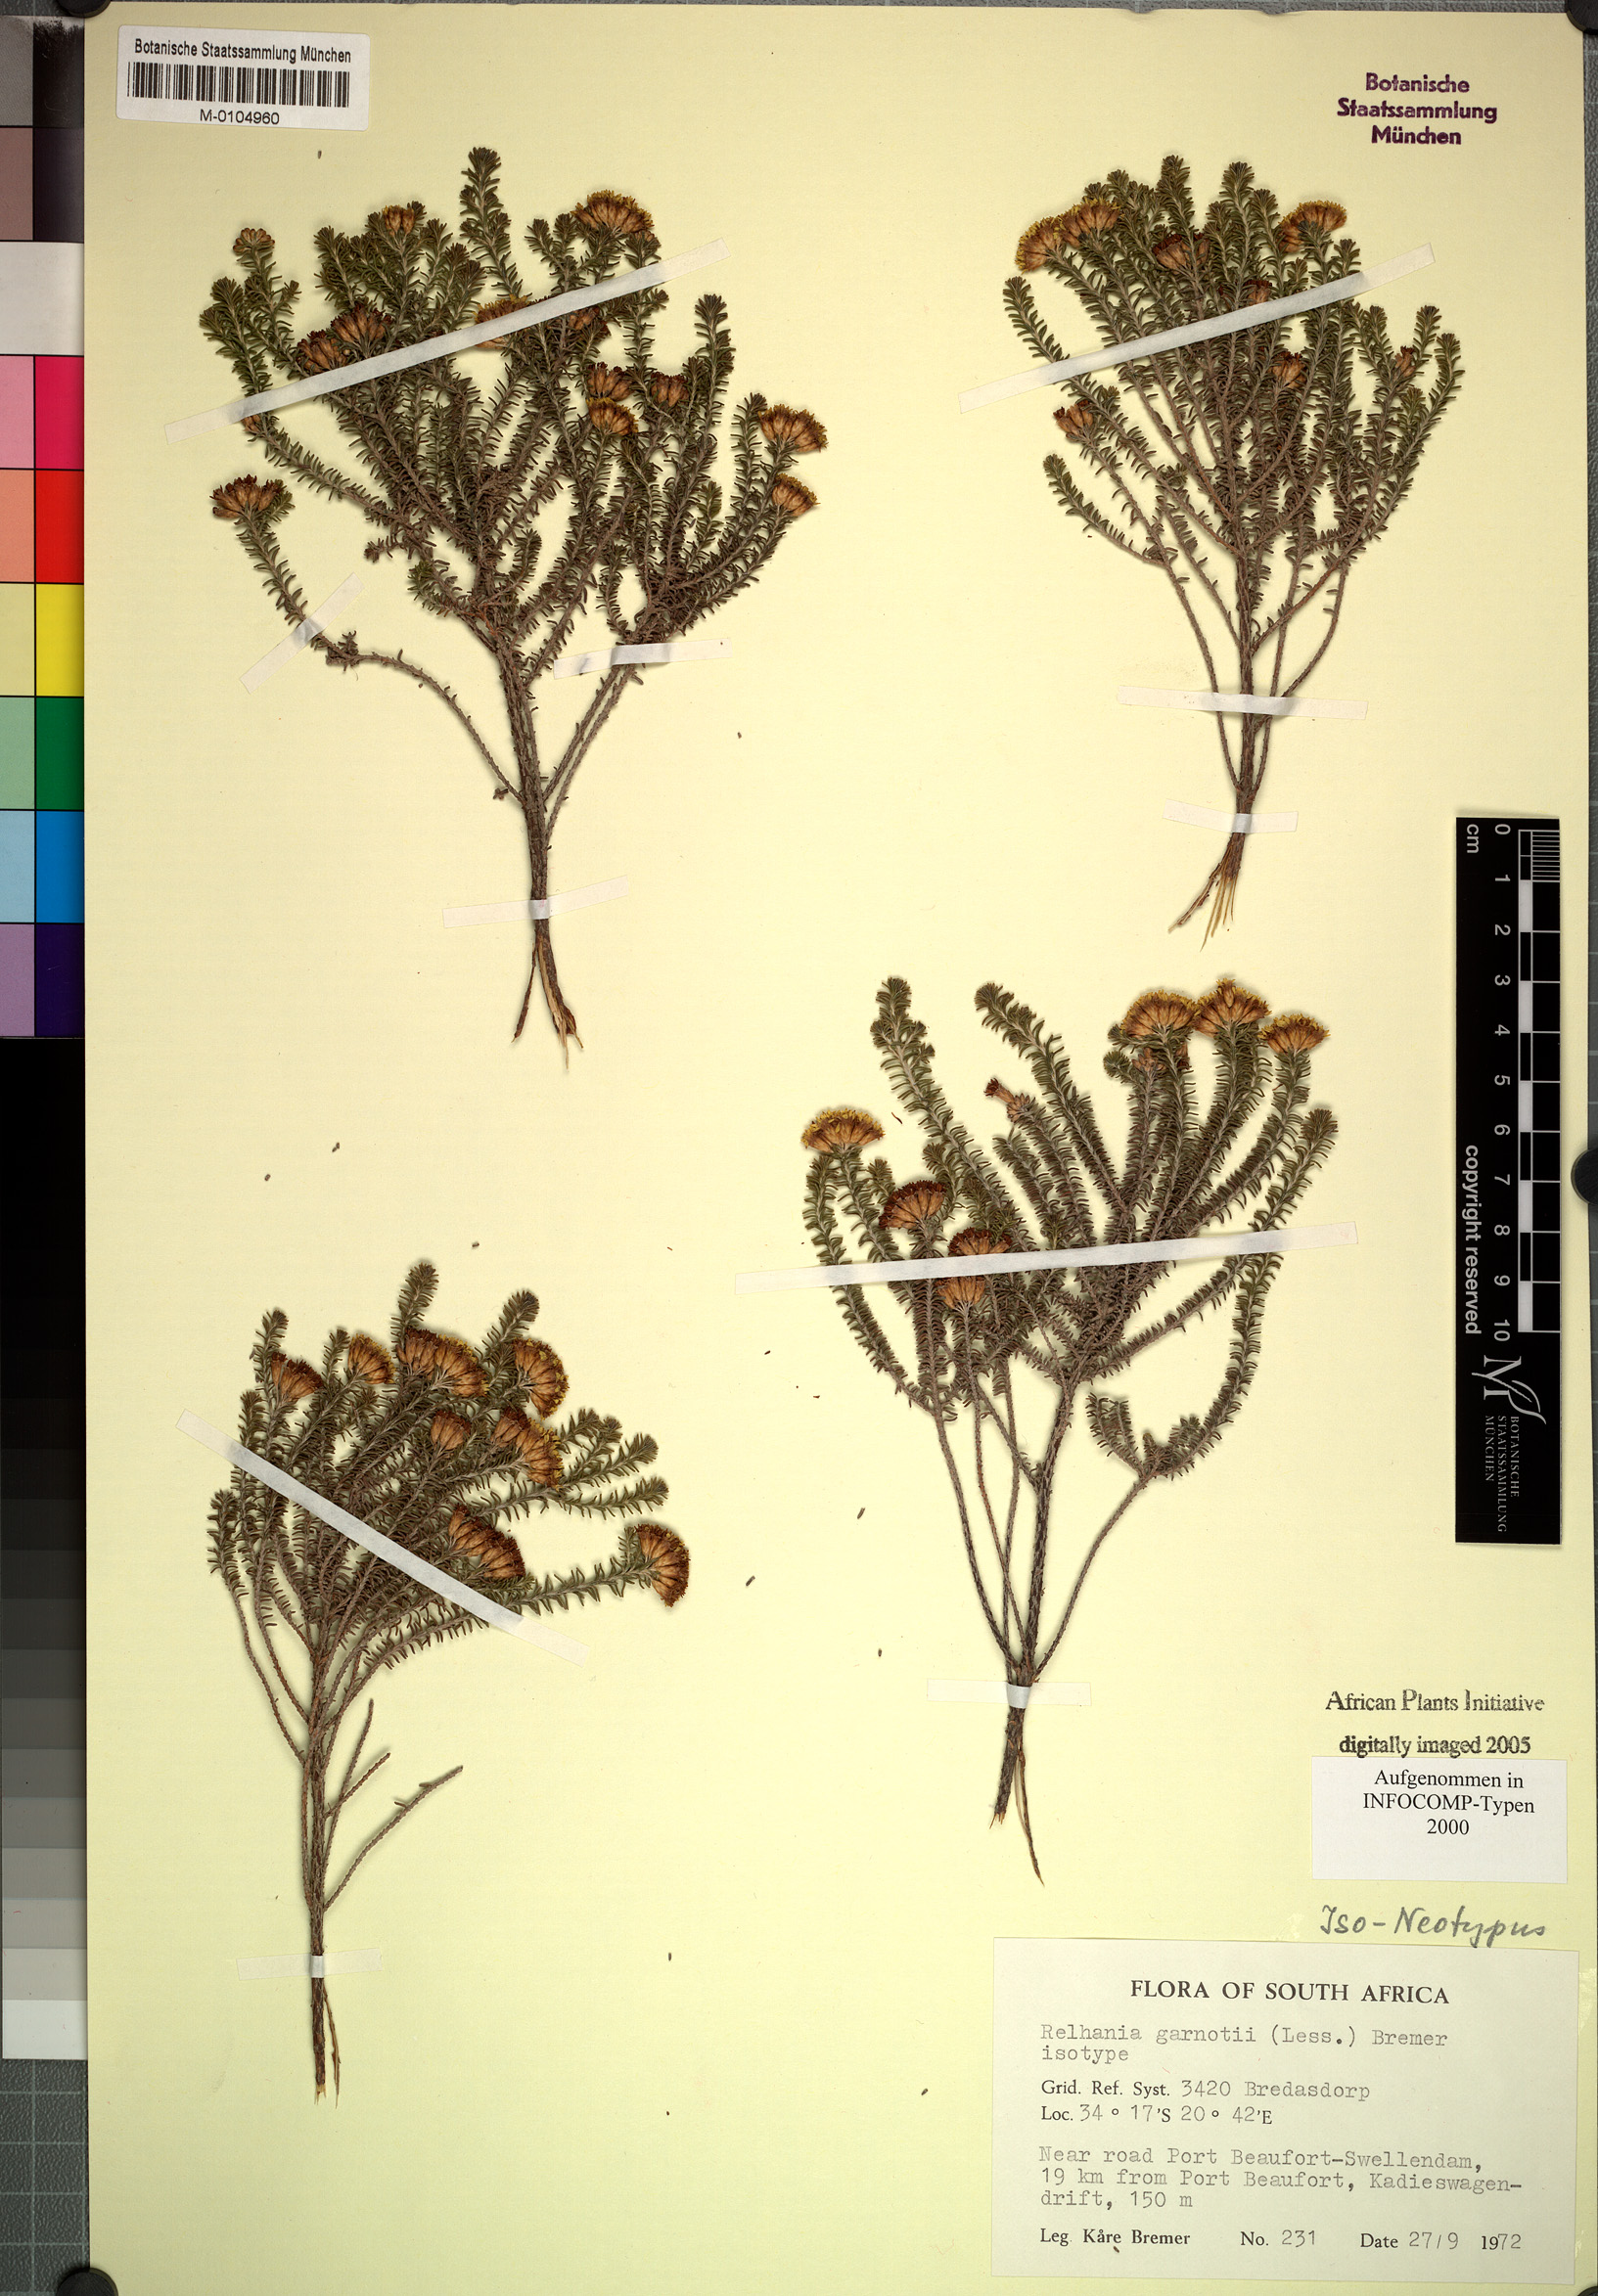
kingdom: Plantae
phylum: Tracheophyta
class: Magnoliopsida
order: Asterales
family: Asteraceae
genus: Oedera
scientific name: Oedera garnotii
